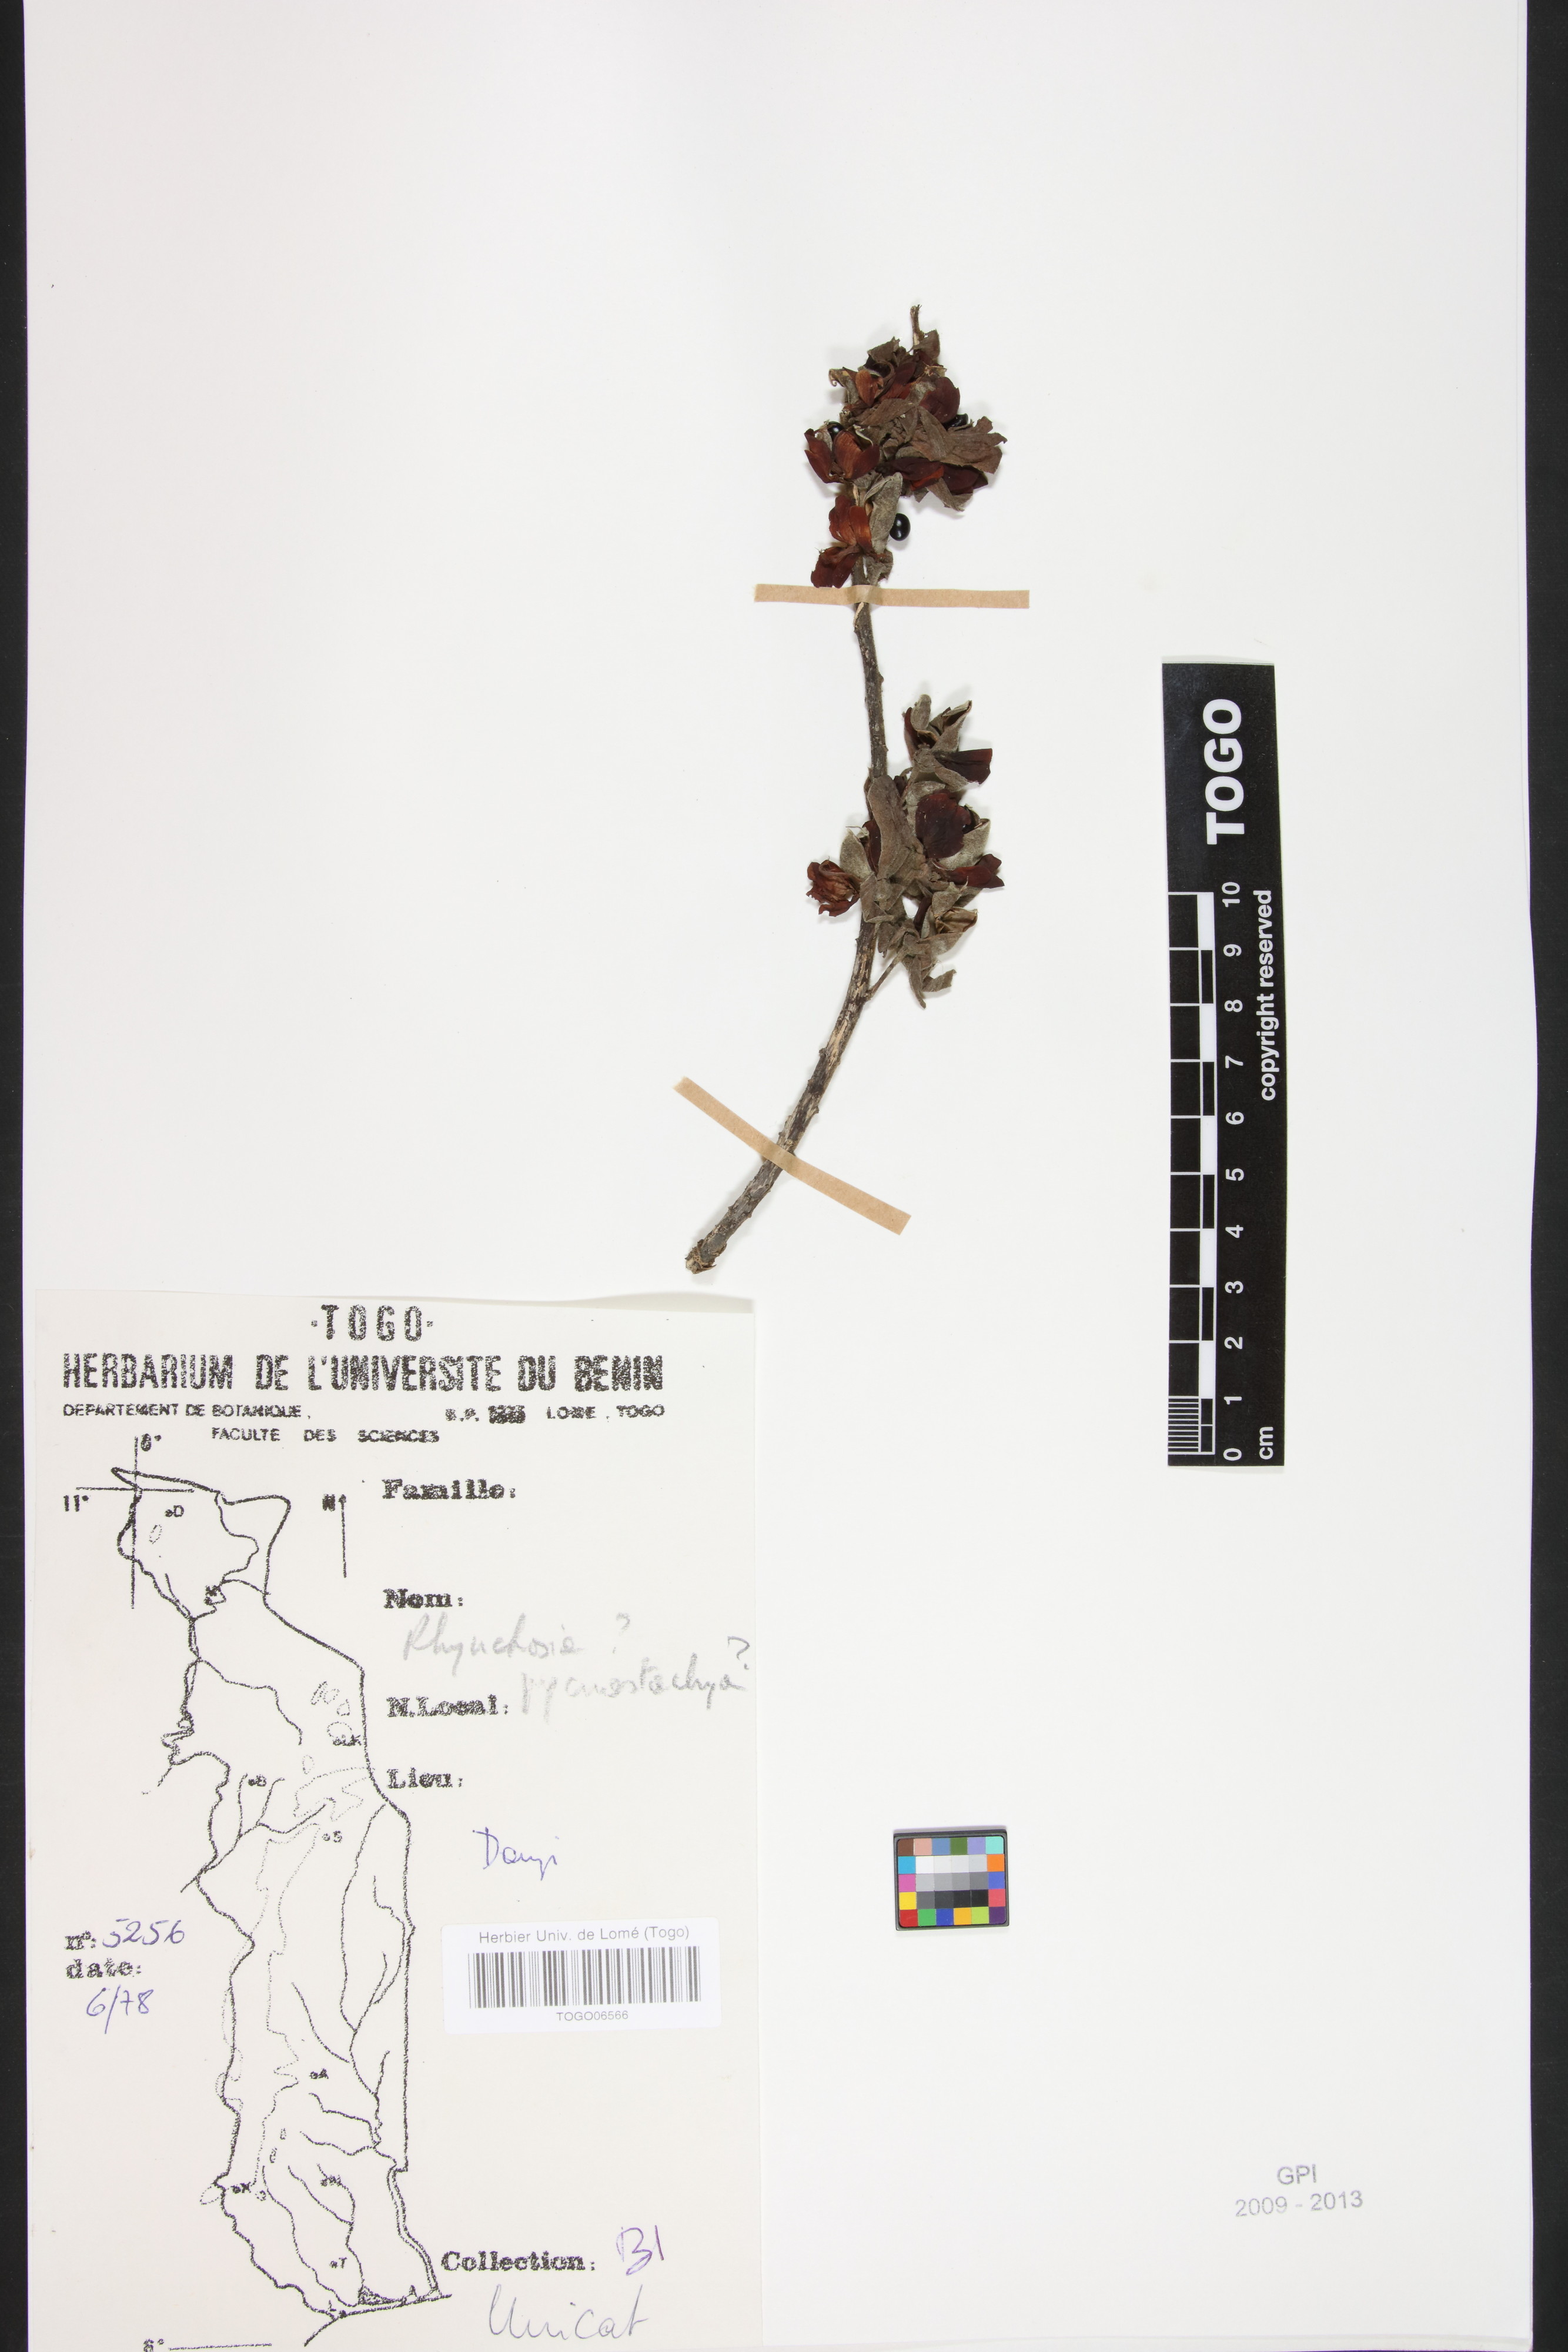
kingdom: Plantae
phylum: Tracheophyta
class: Magnoliopsida
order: Fabales
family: Fabaceae
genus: Rhynchosia
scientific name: Rhynchosia pycnostachya
